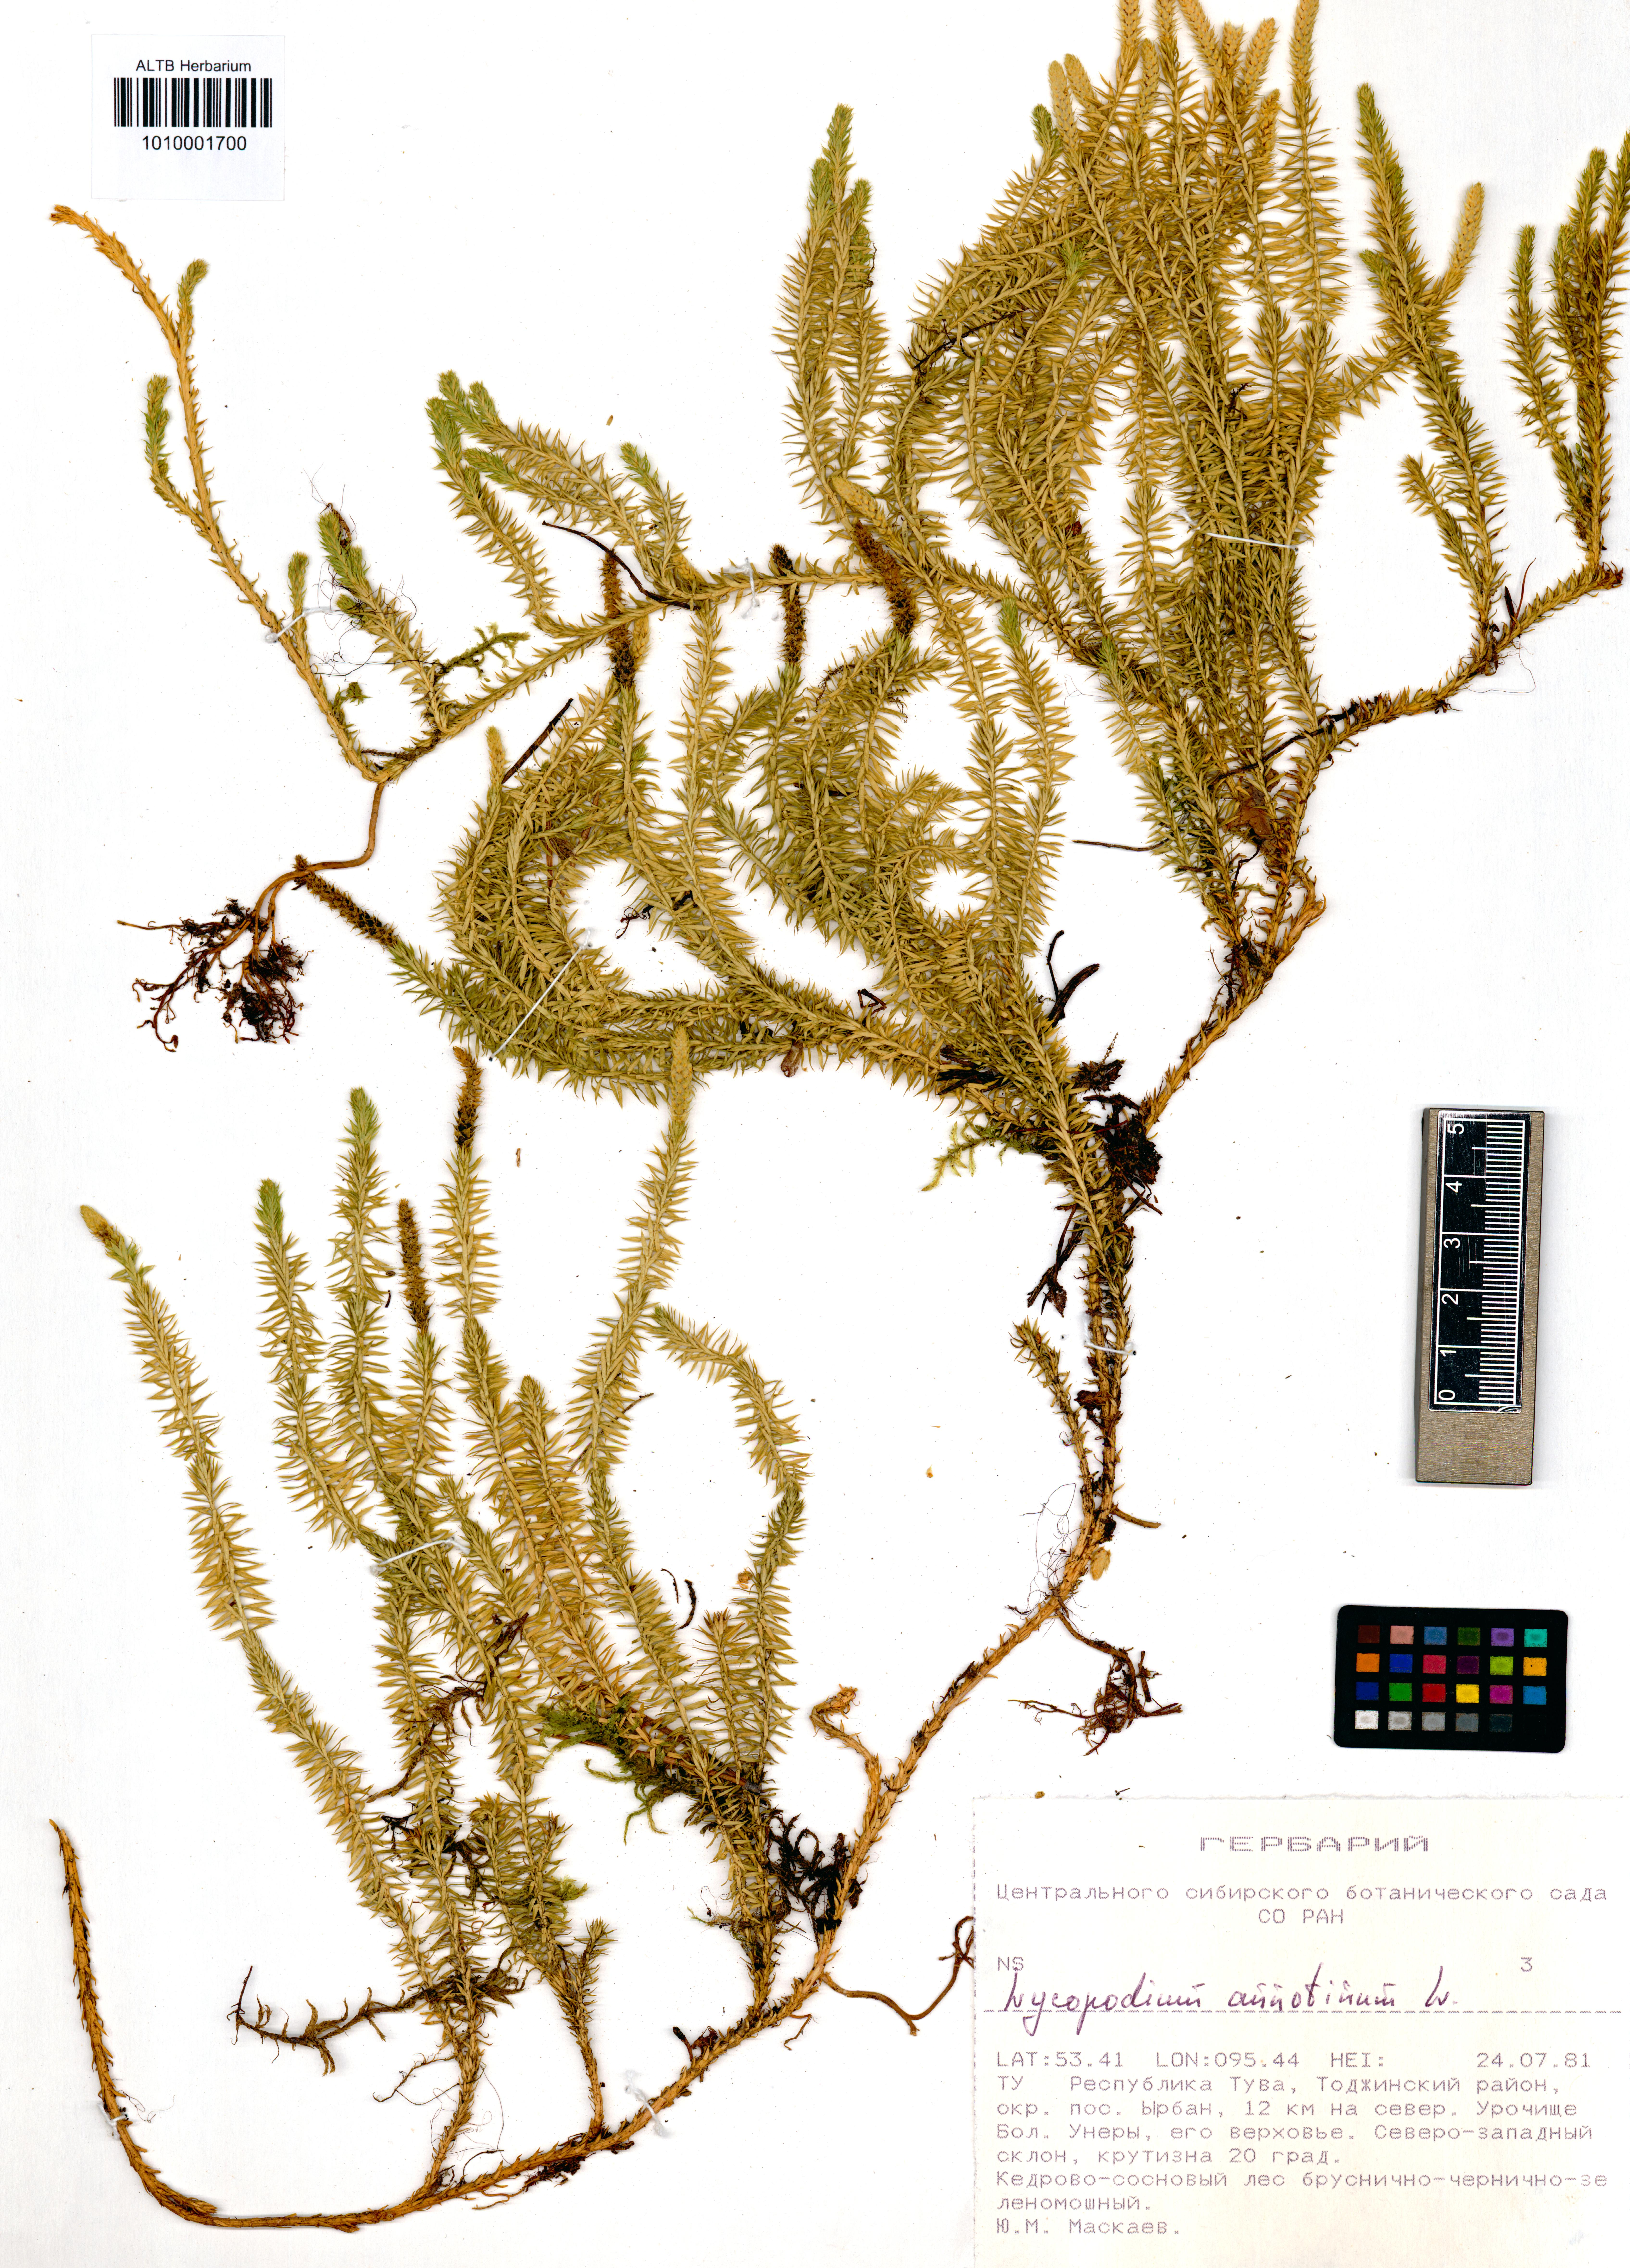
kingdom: Plantae
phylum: Tracheophyta
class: Lycopodiopsida
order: Lycopodiales
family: Lycopodiaceae
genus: Spinulum
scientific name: Spinulum annotinum
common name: Interrupted club-moss
